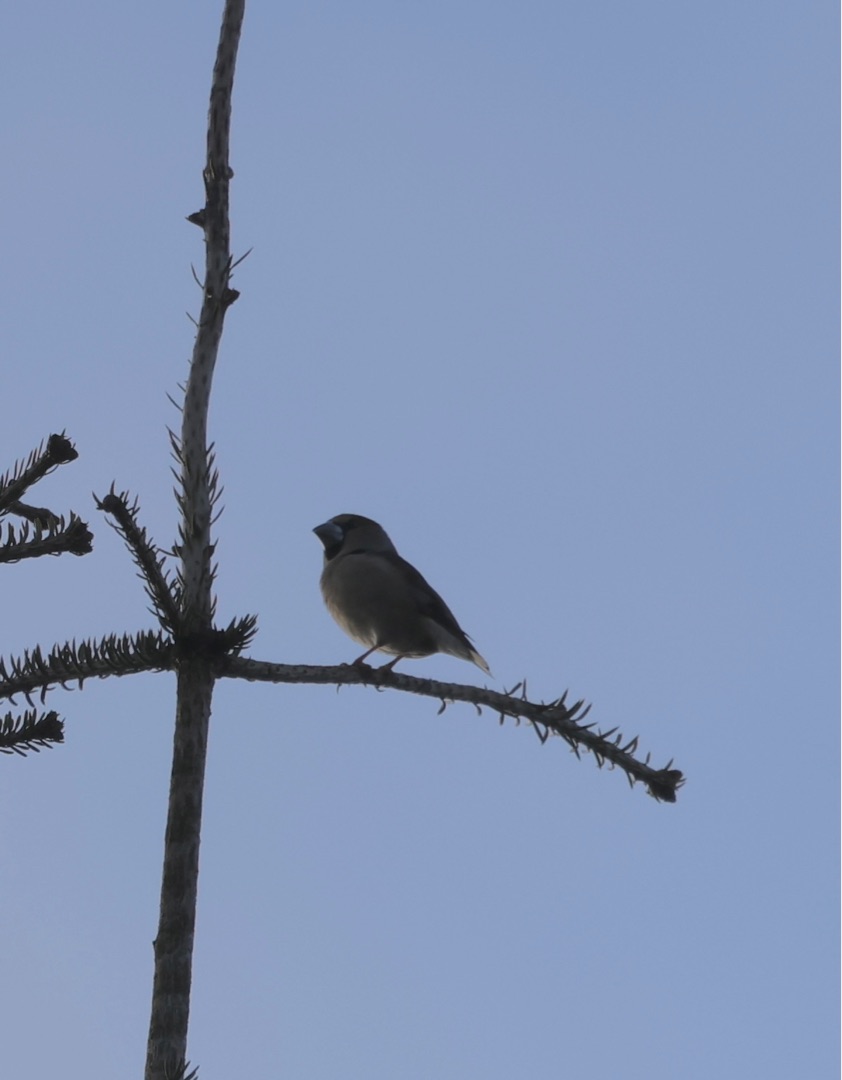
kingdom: Animalia
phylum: Chordata
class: Aves
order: Passeriformes
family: Fringillidae
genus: Coccothraustes
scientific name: Coccothraustes coccothraustes
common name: Kernebider
